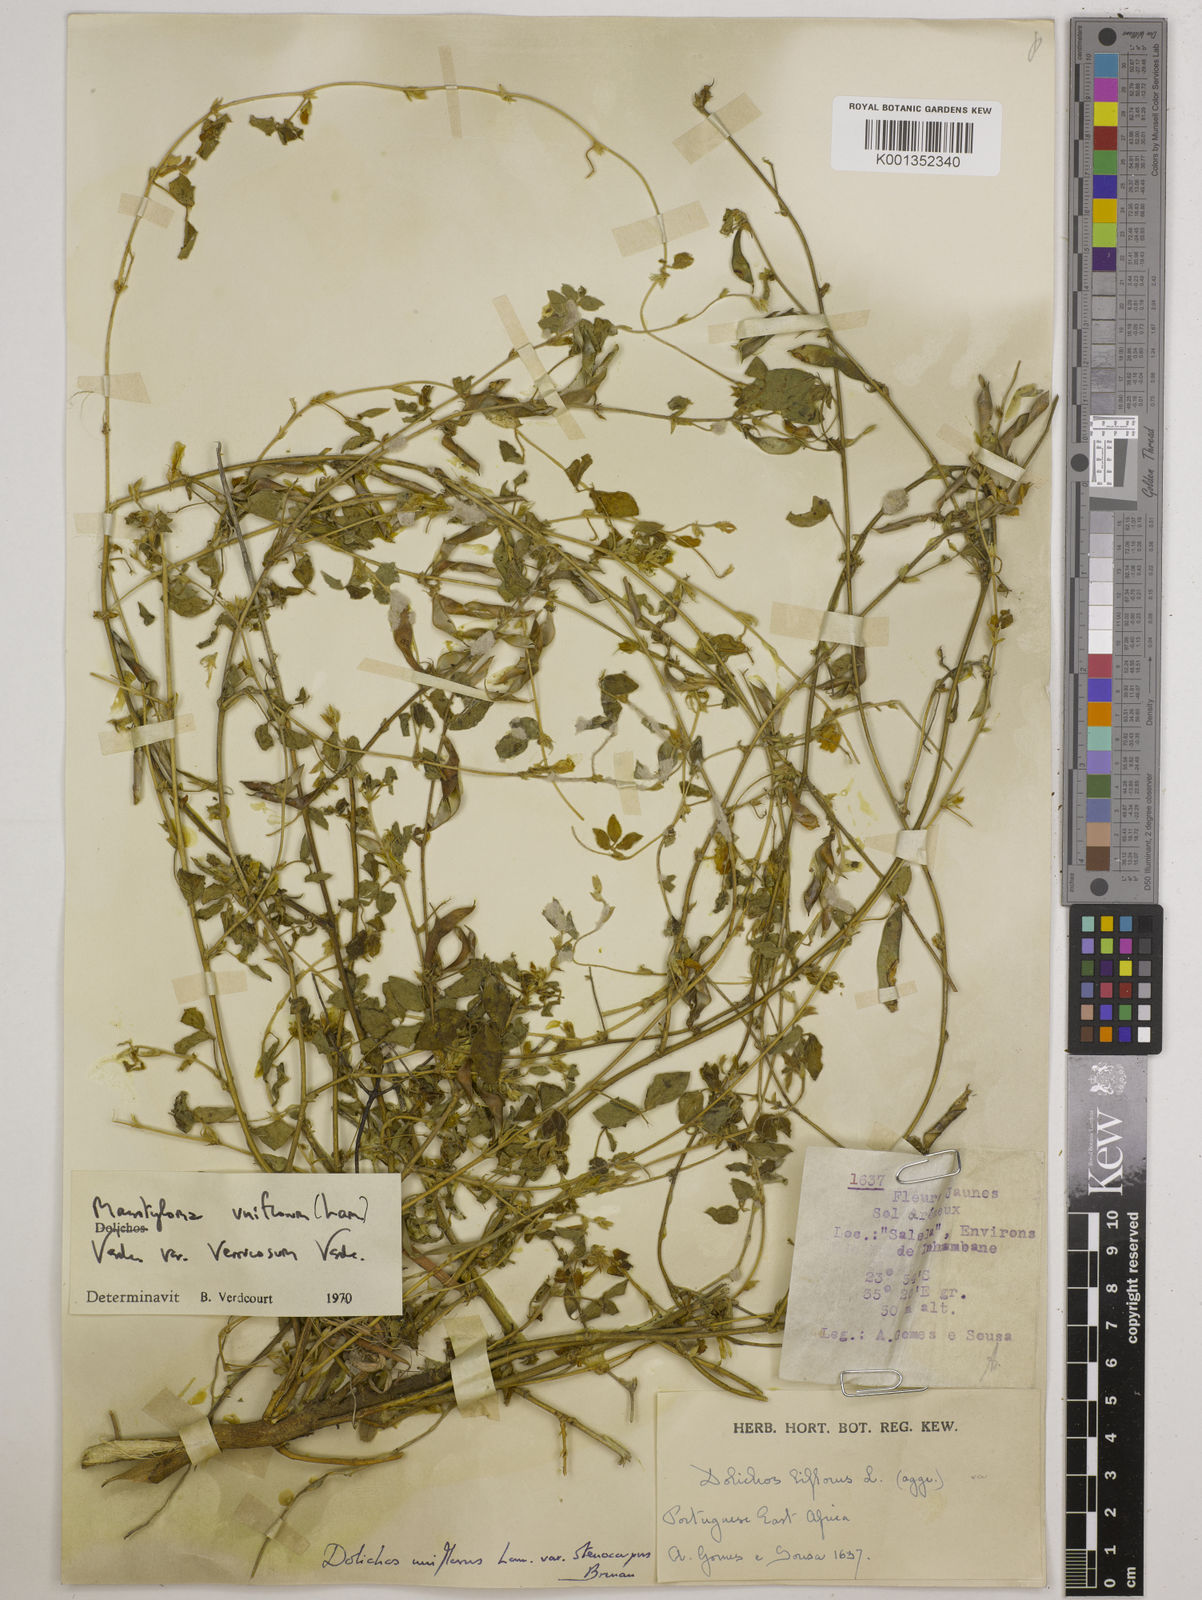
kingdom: Plantae
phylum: Tracheophyta
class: Magnoliopsida
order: Fabales
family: Fabaceae
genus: Macrotyloma
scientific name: Macrotyloma
